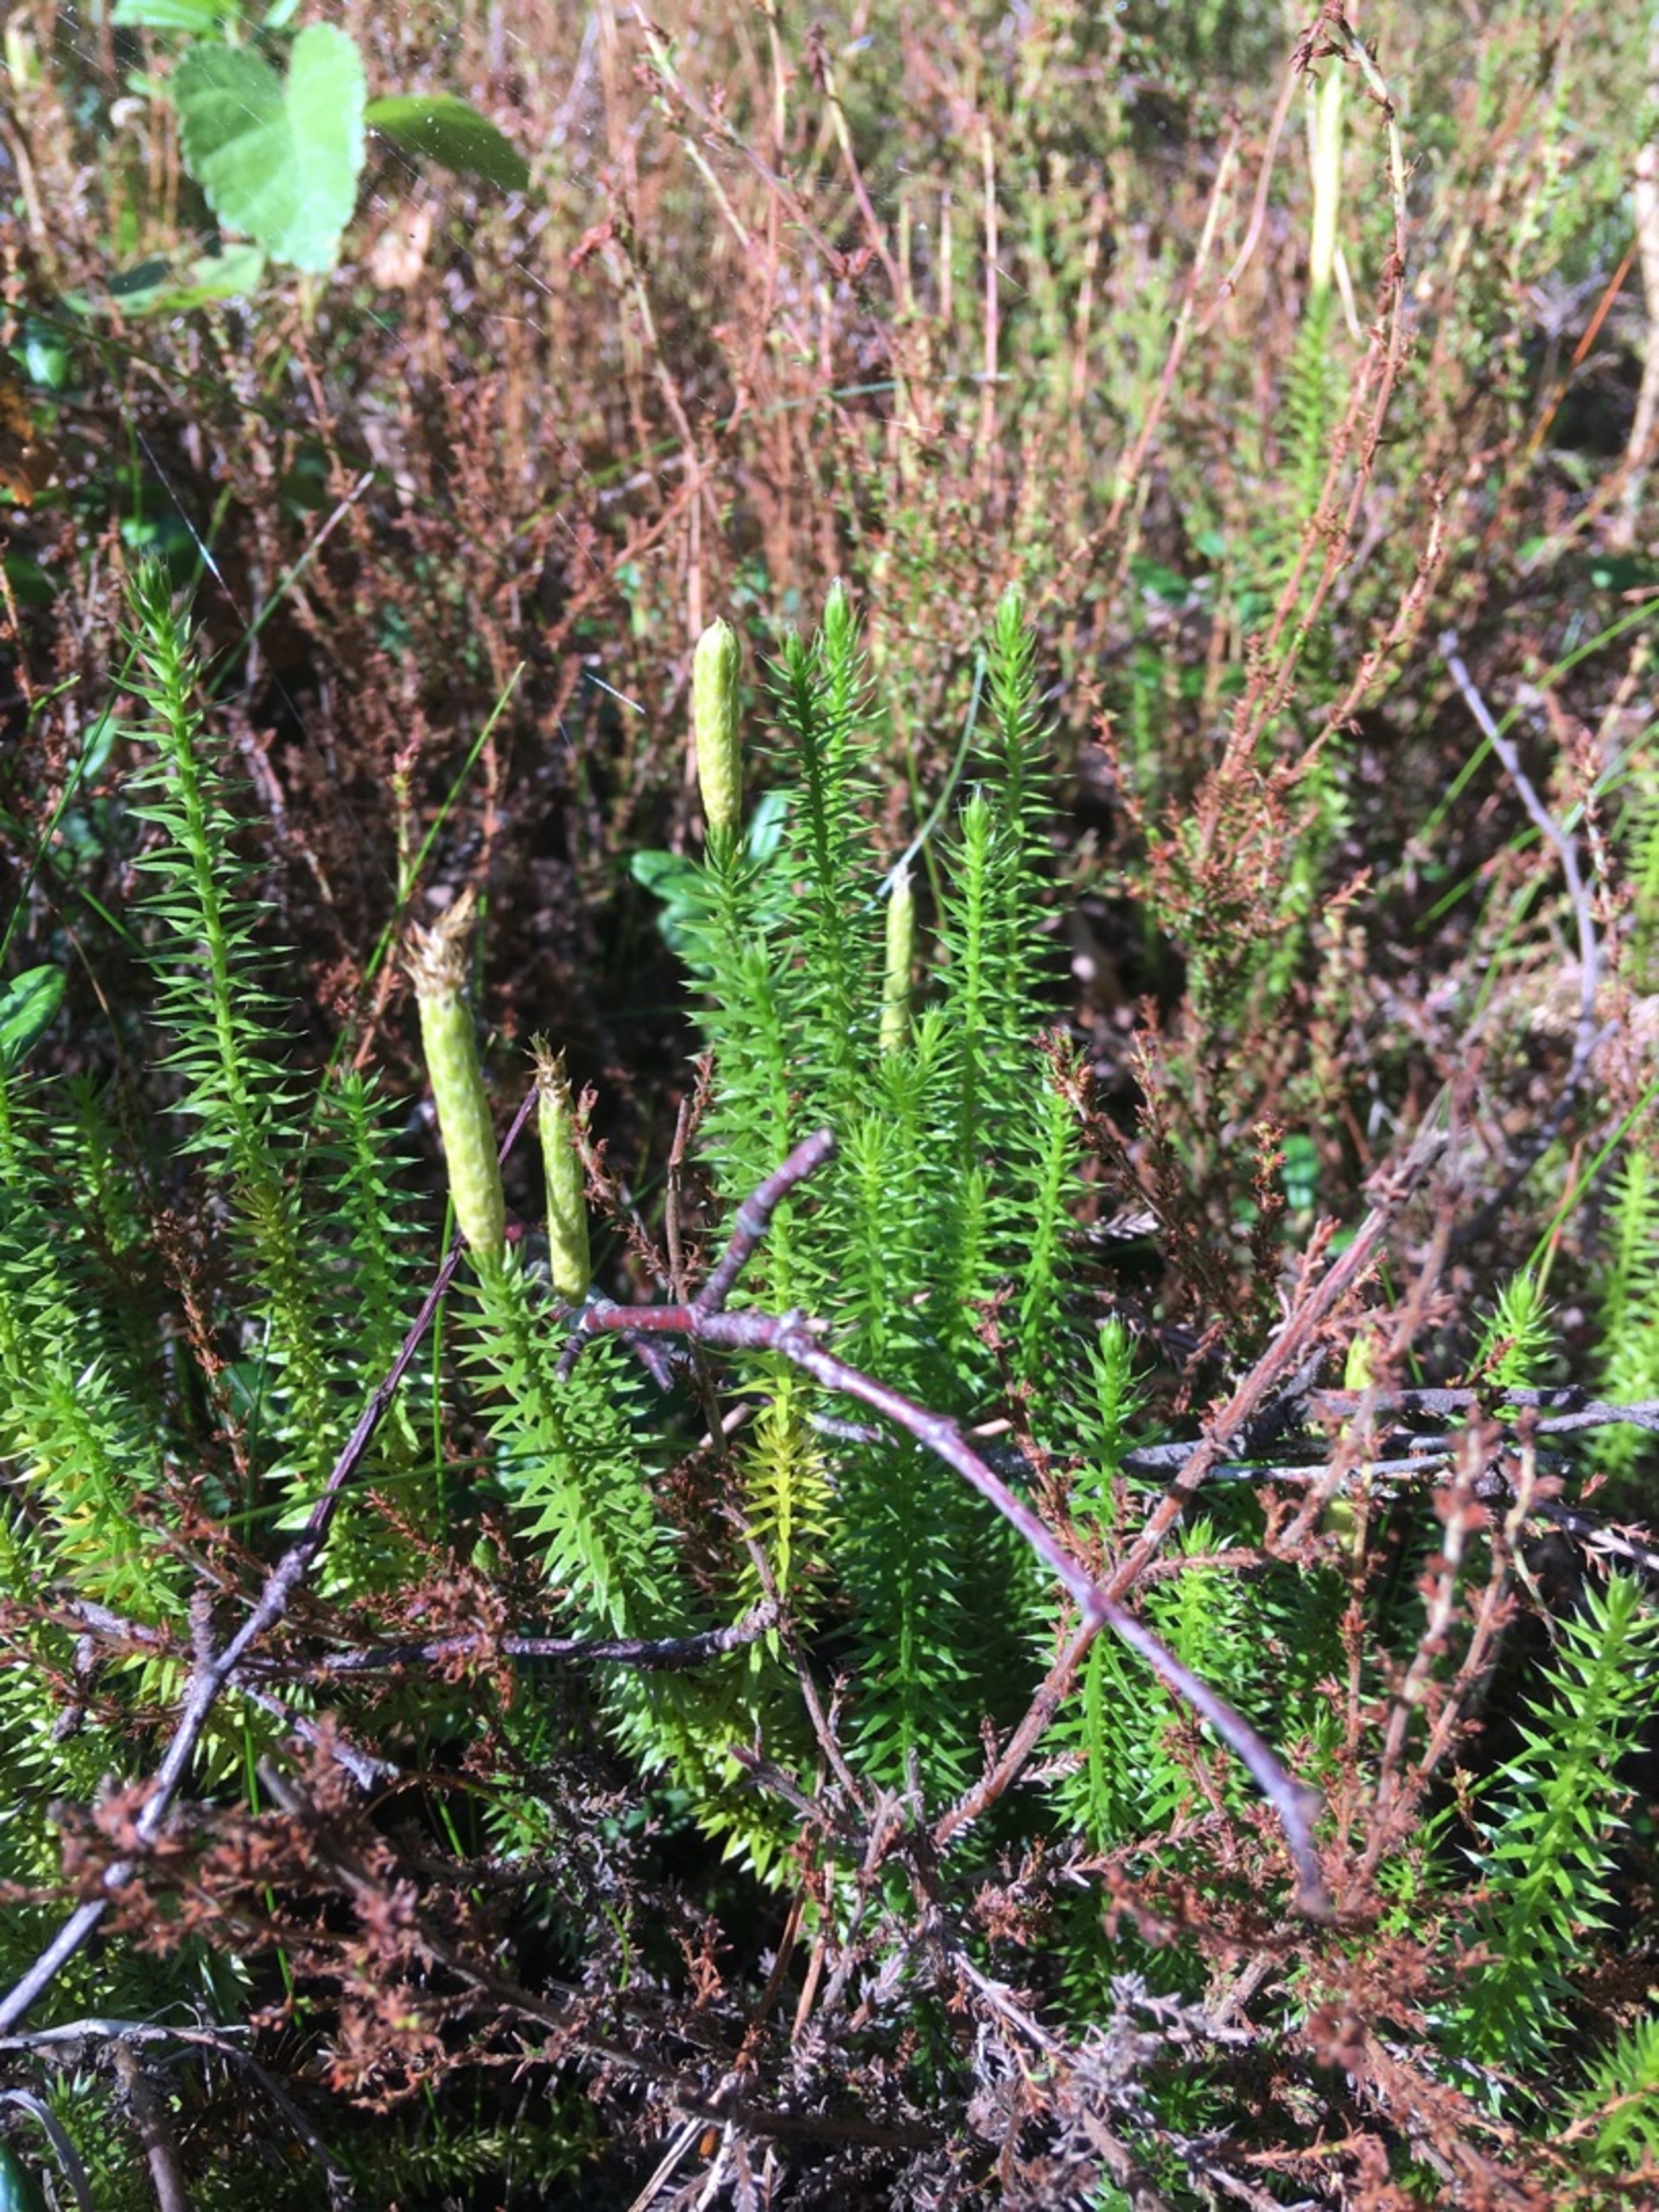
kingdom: Plantae
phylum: Tracheophyta
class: Lycopodiopsida
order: Lycopodiales
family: Lycopodiaceae
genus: Spinulum
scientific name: Spinulum annotinum
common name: Femradet ulvefod
